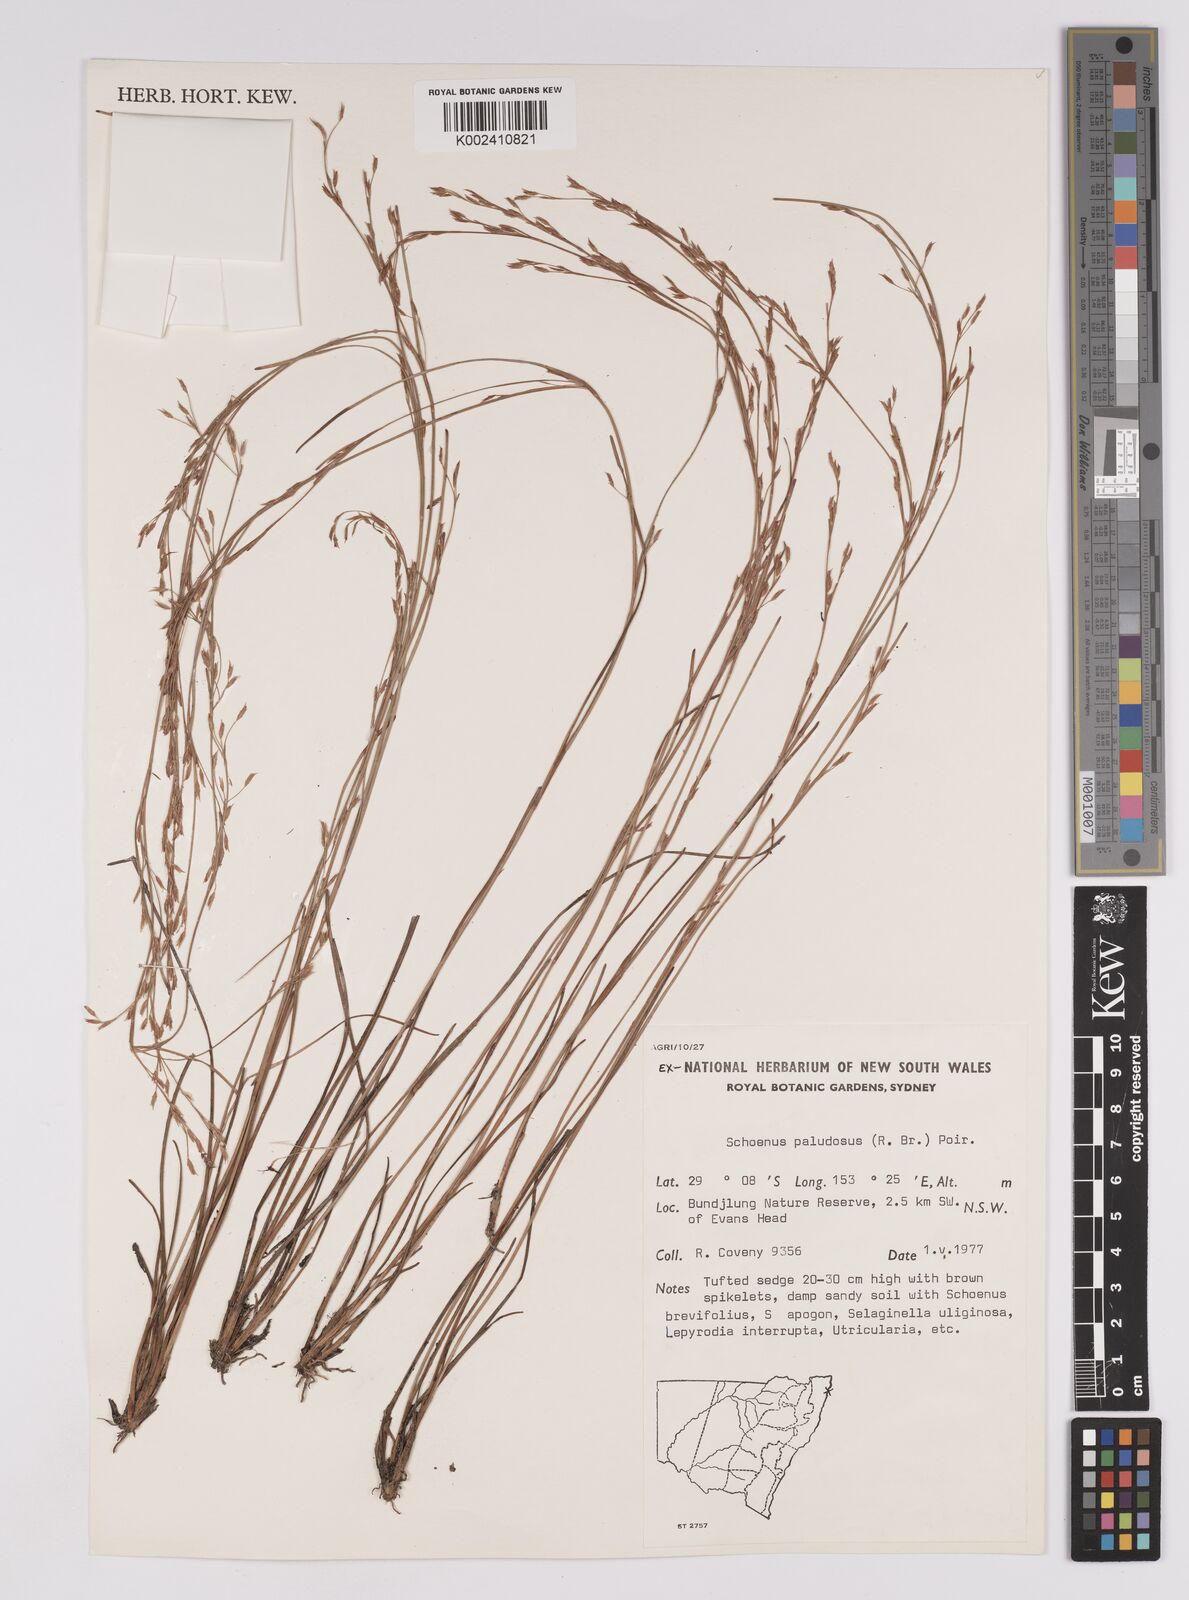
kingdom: Plantae
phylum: Tracheophyta
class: Liliopsida
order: Poales
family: Cyperaceae
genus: Anthelepis
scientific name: Anthelepis paludosa
